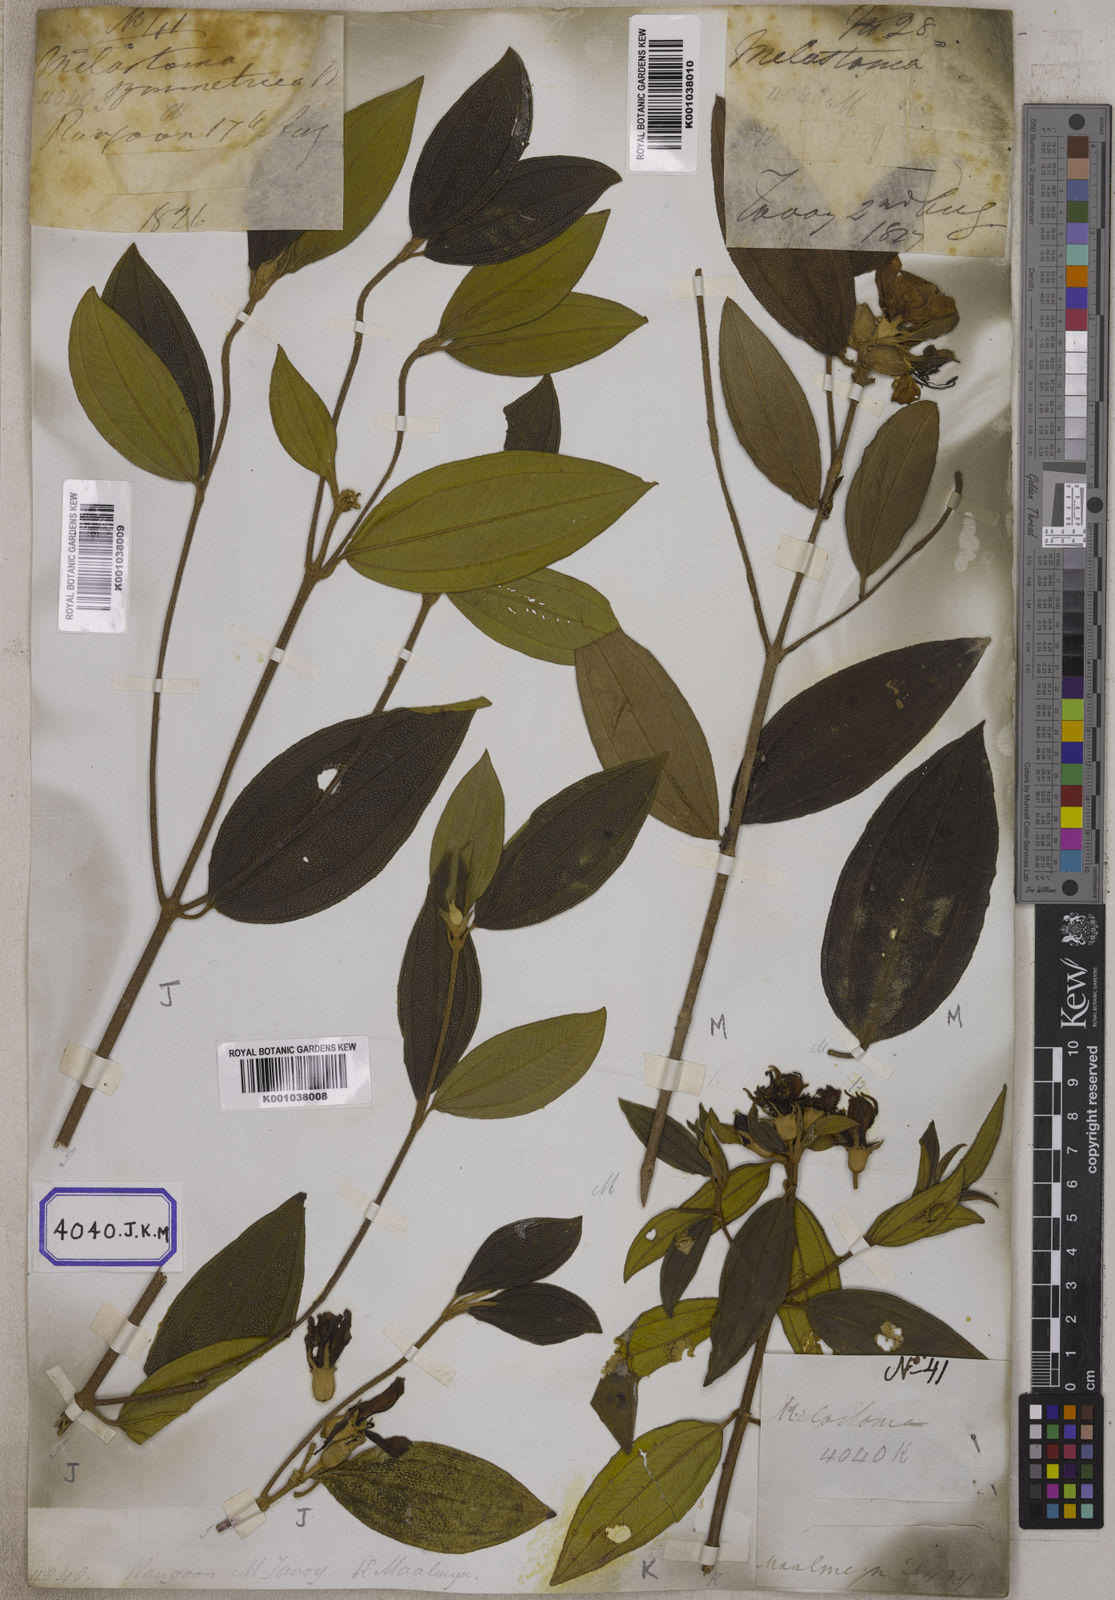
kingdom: Plantae
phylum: Tracheophyta
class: Magnoliopsida
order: Myrtales
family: Melastomataceae
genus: Melastoma
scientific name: Melastoma malabathricum
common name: Indian-rhododendron
